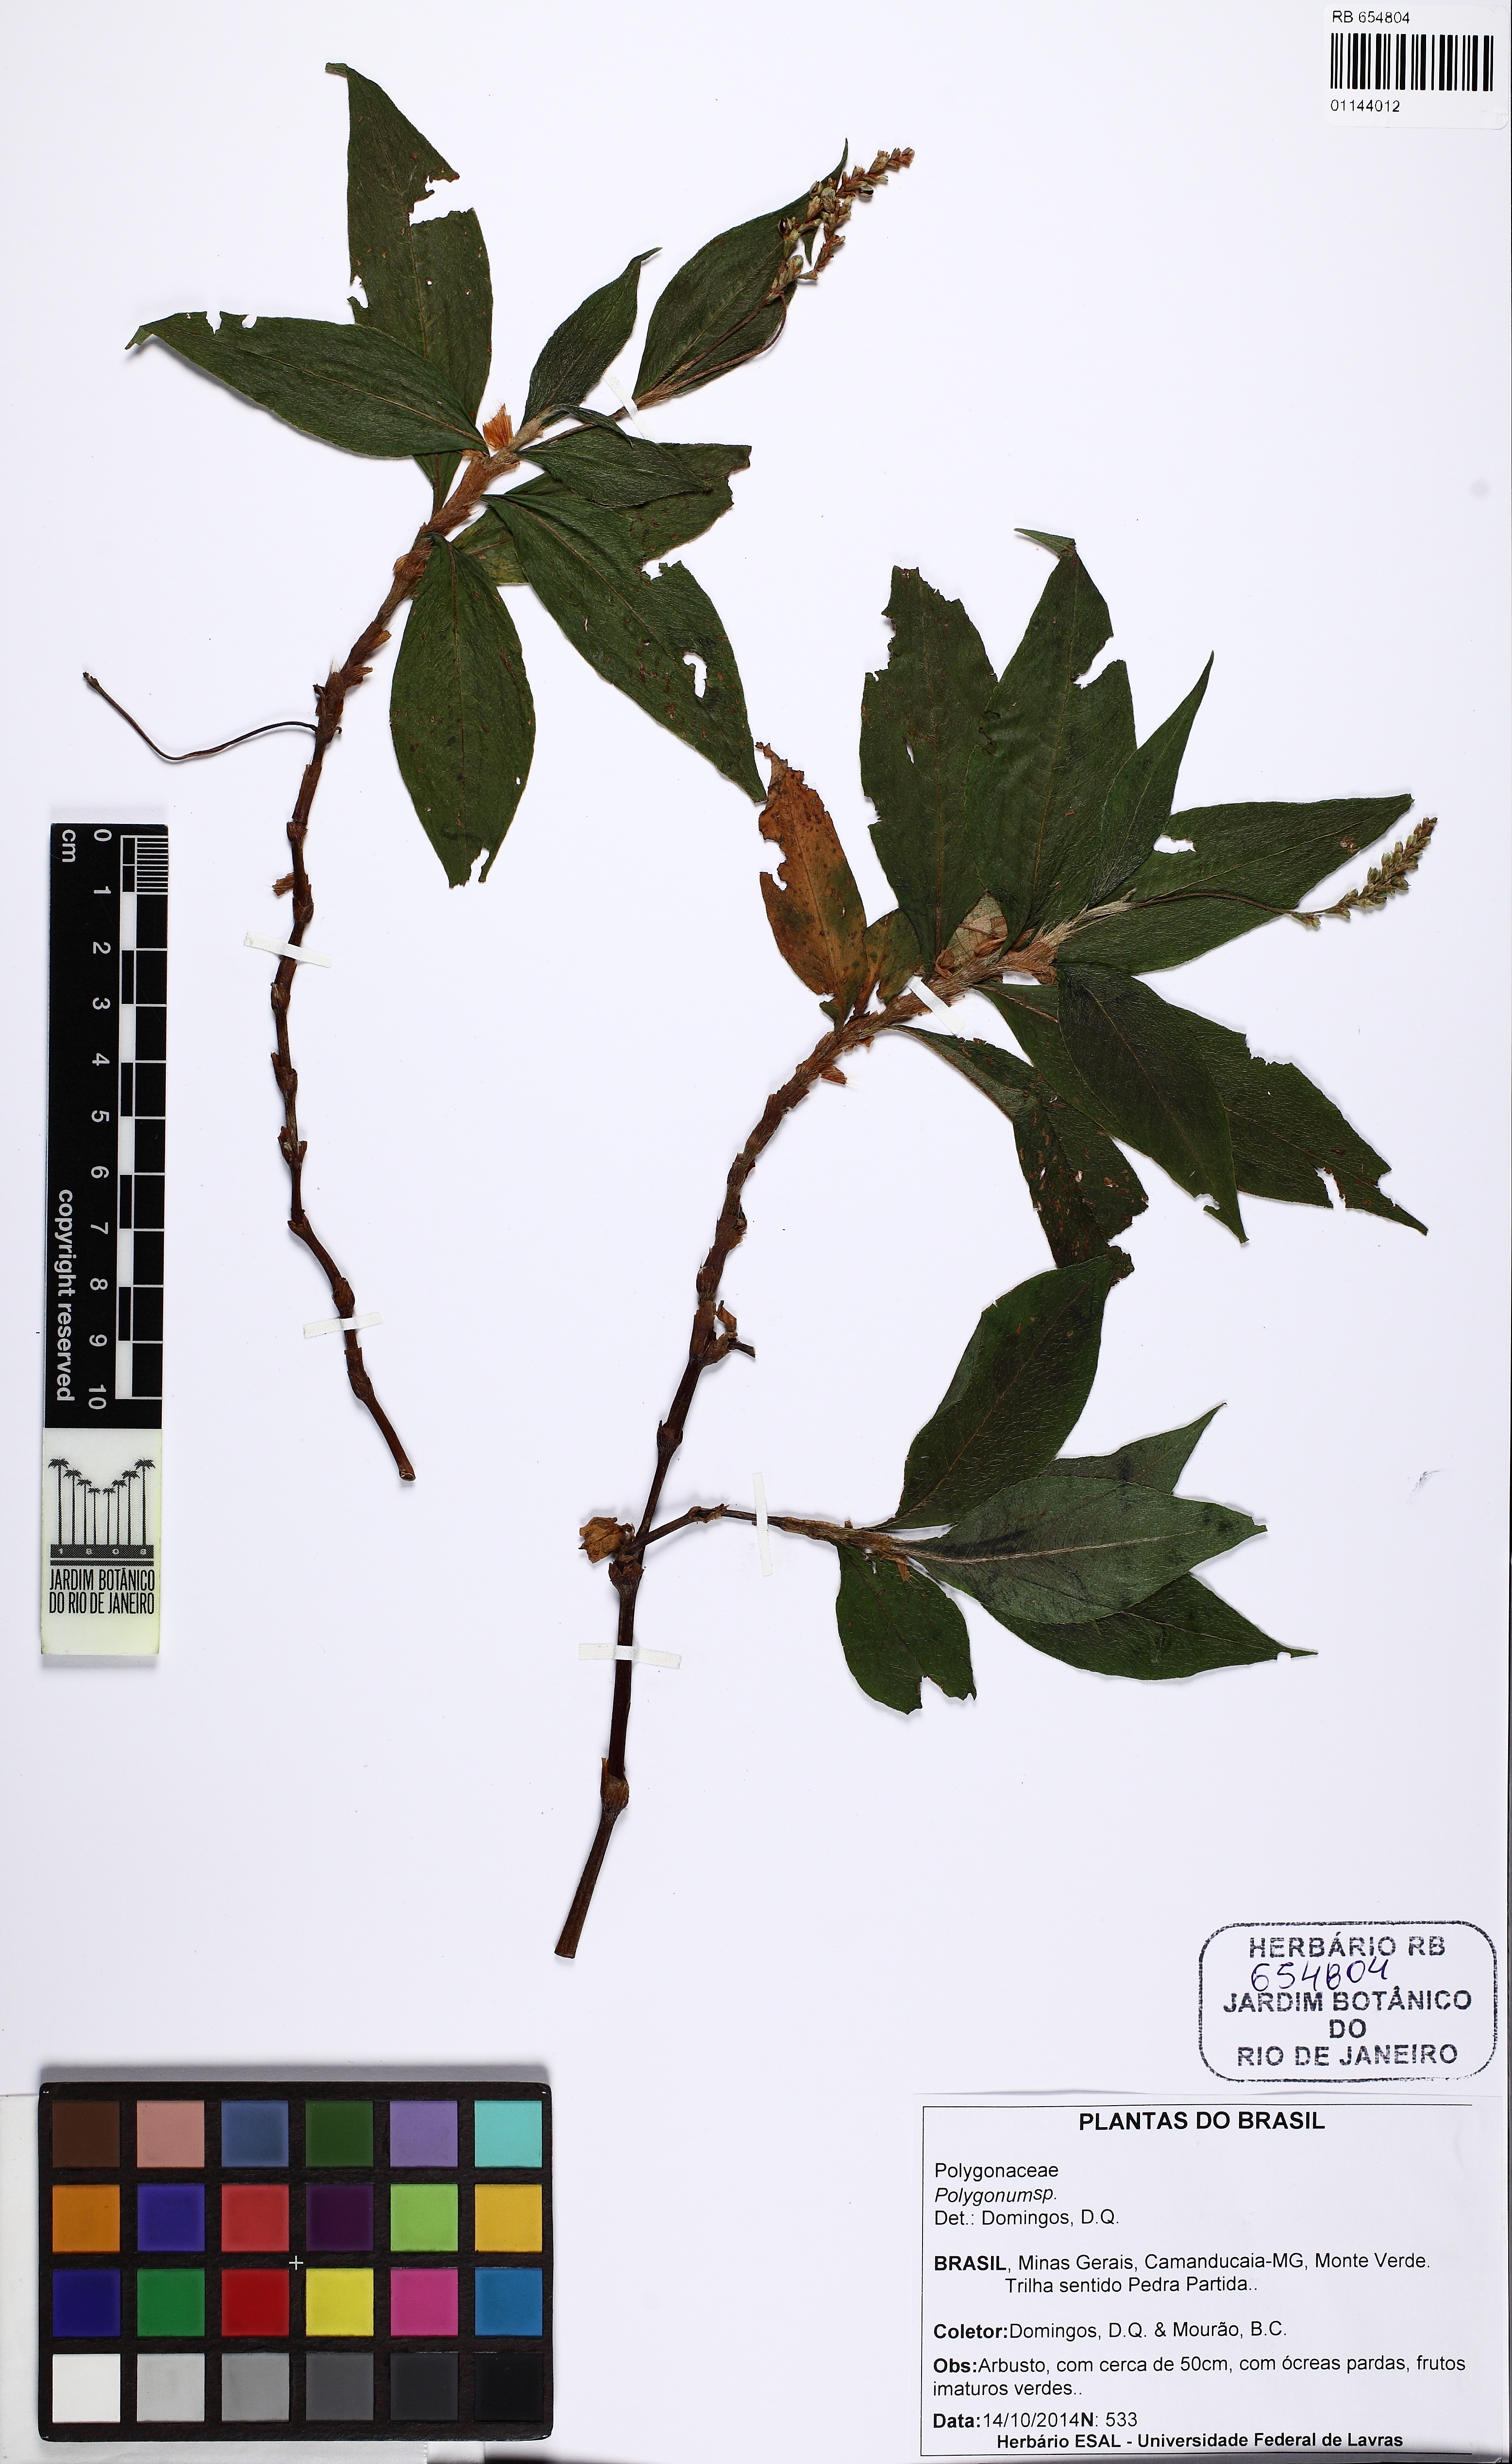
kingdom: Plantae
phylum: Tracheophyta
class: Magnoliopsida
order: Caryophyllales
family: Polygonaceae
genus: Polygonum
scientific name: Polygonum
